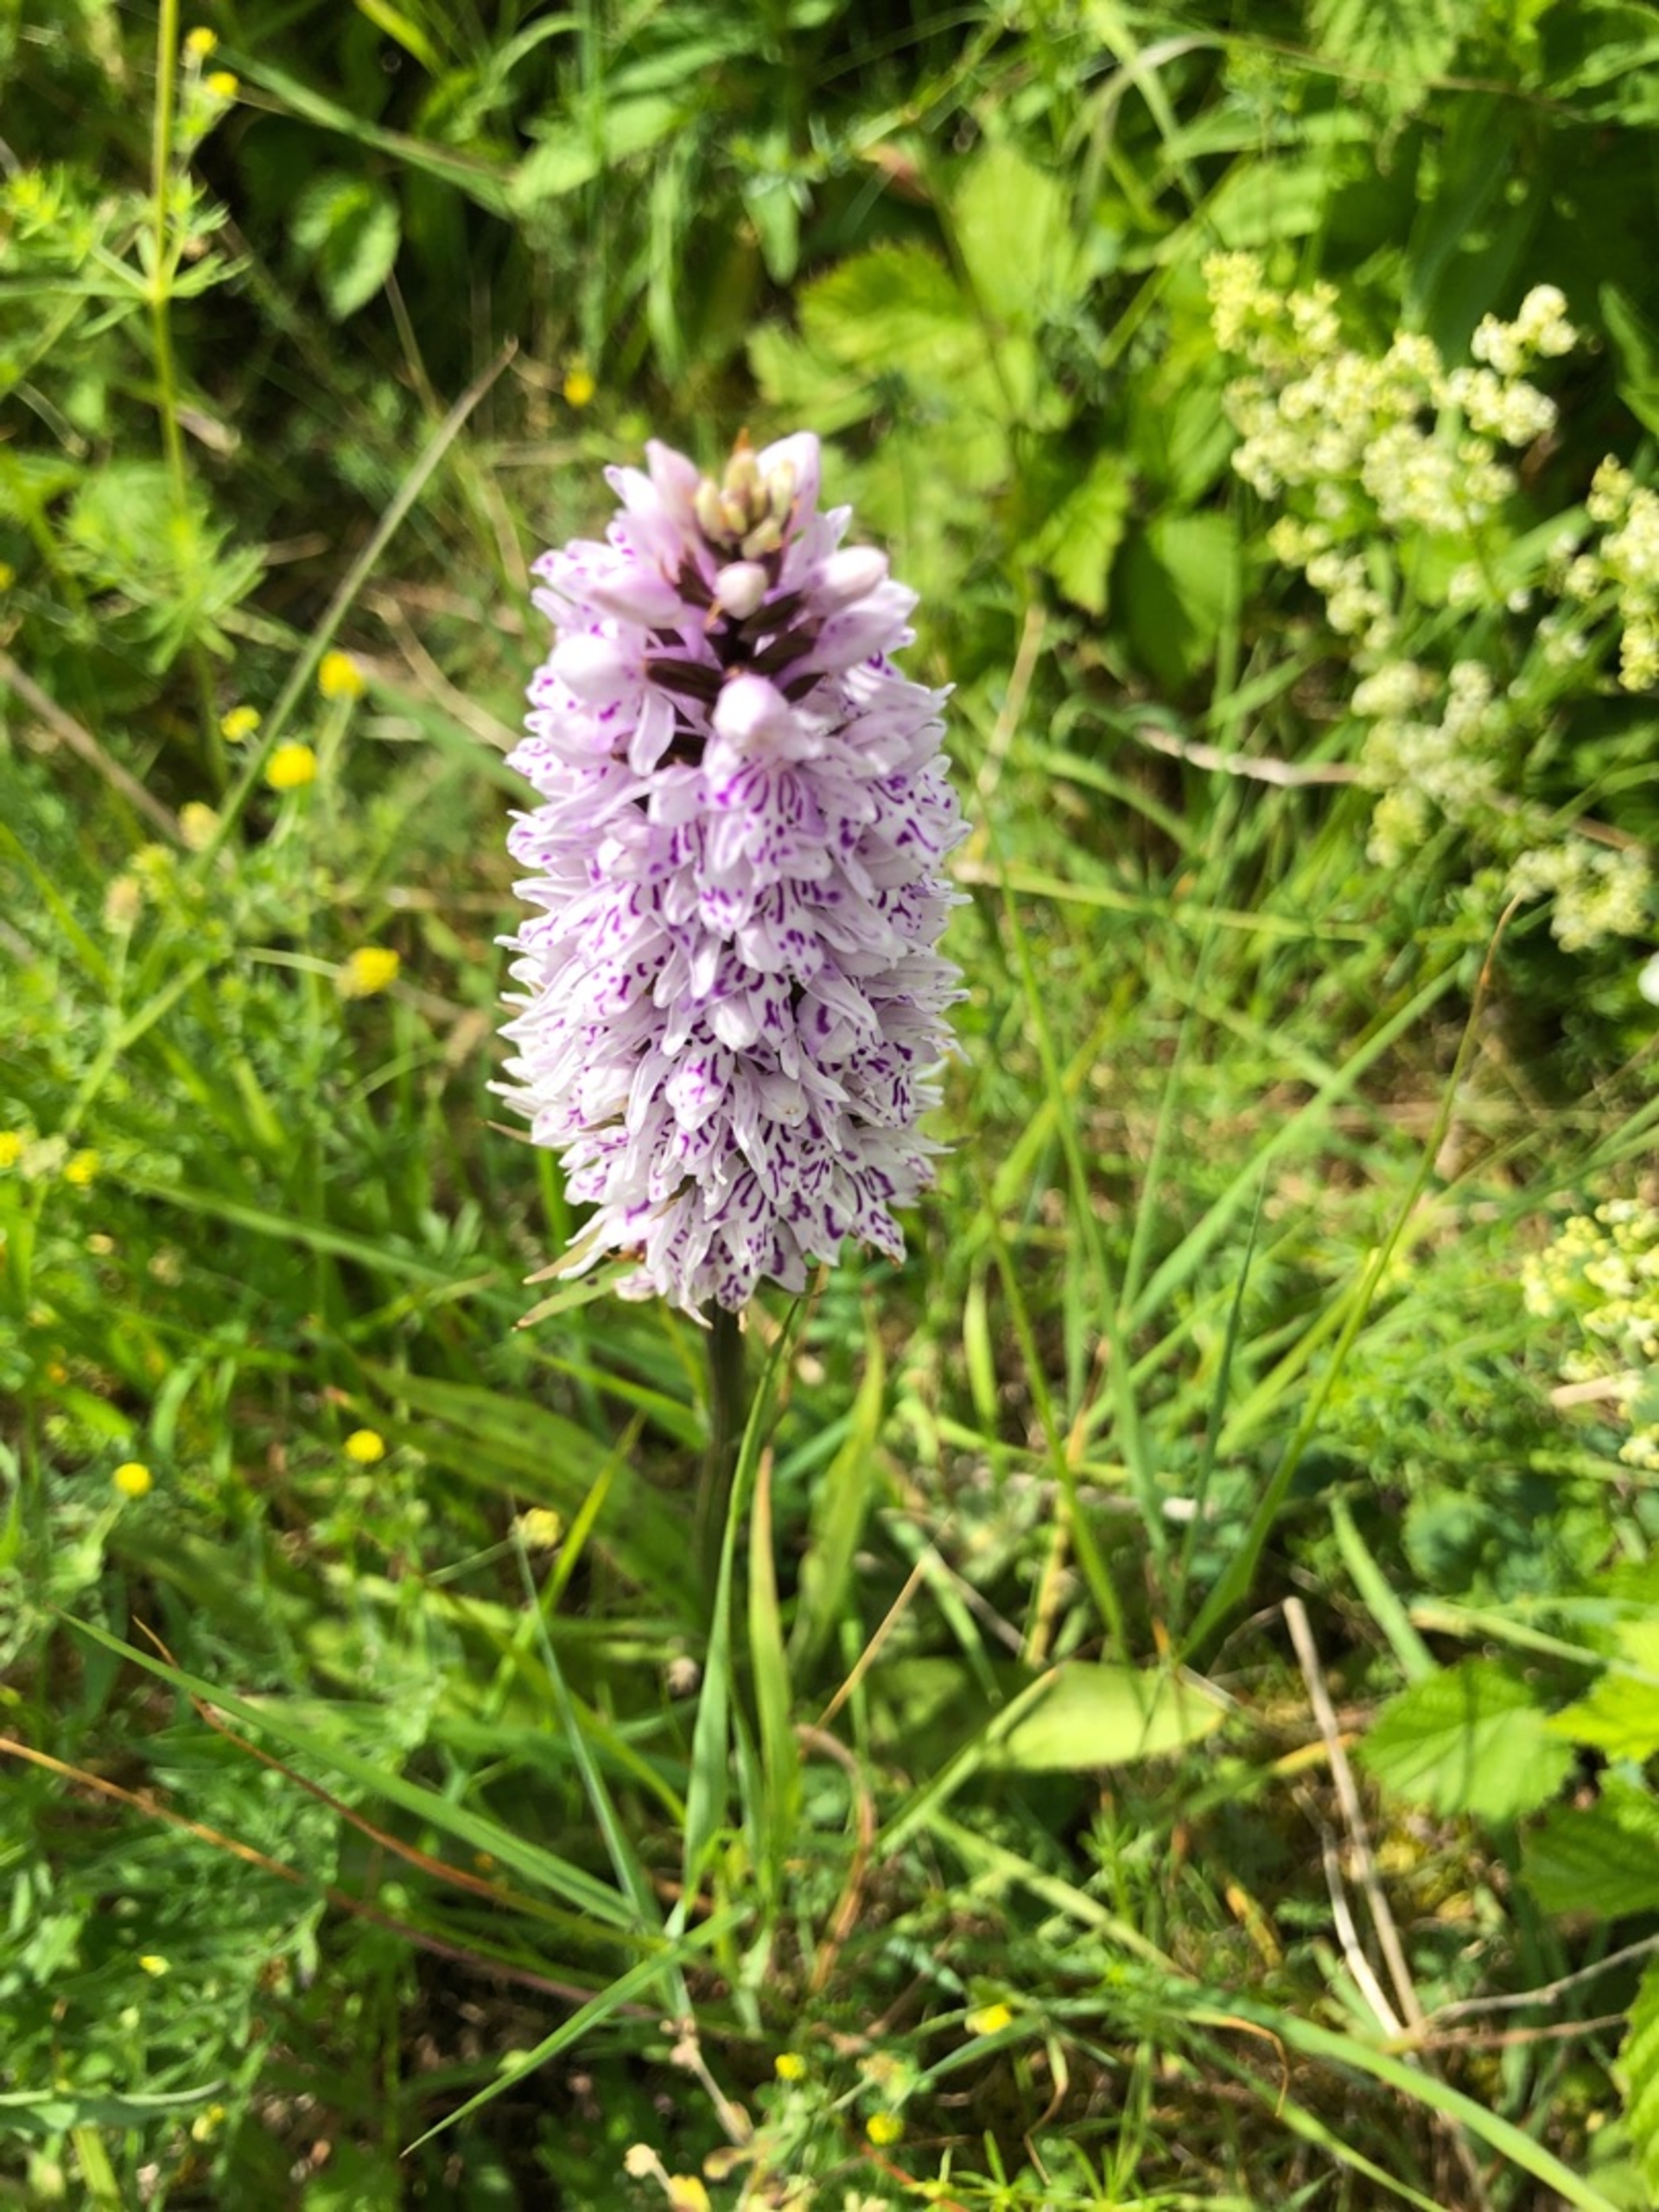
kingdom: Plantae
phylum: Tracheophyta
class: Liliopsida
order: Asparagales
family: Orchidaceae
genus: Dactylorhiza
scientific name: Dactylorhiza maculata
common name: Skov-gøgeurt
